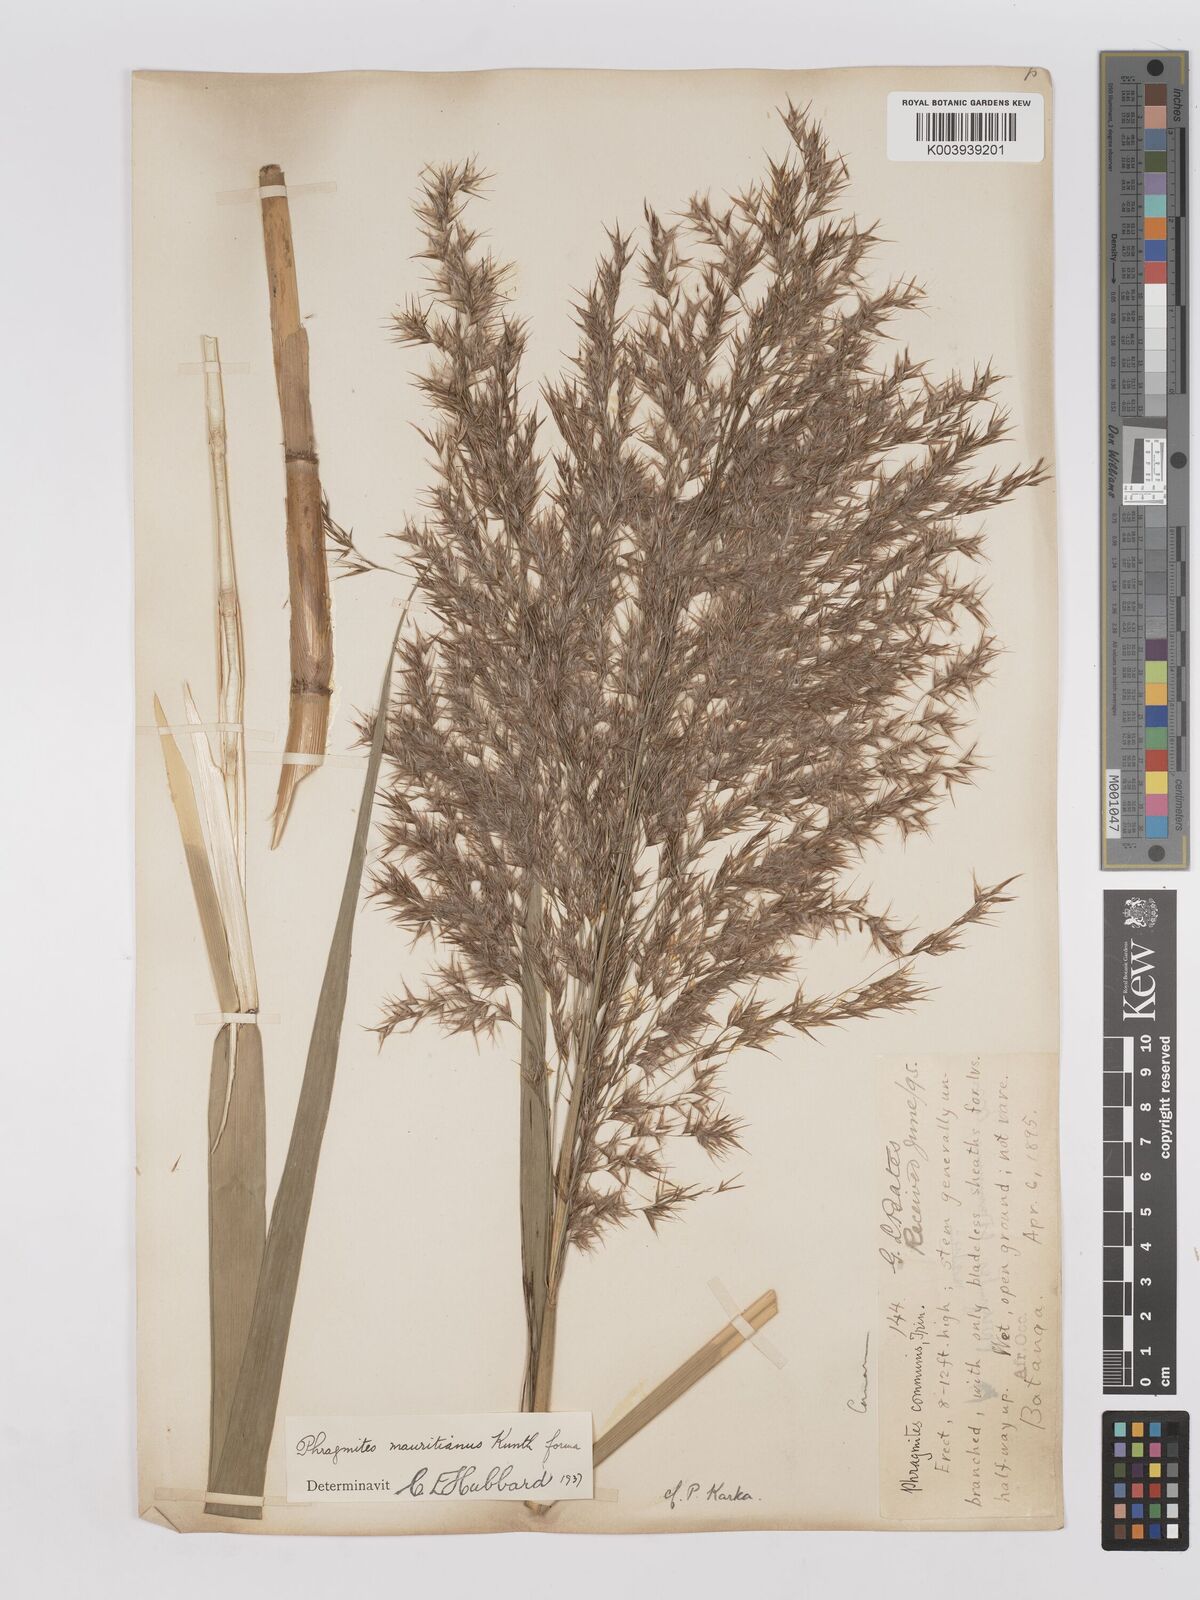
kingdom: Plantae
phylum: Tracheophyta
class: Liliopsida
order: Poales
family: Poaceae
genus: Phragmites
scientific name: Phragmites karka
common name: Tropical reed
